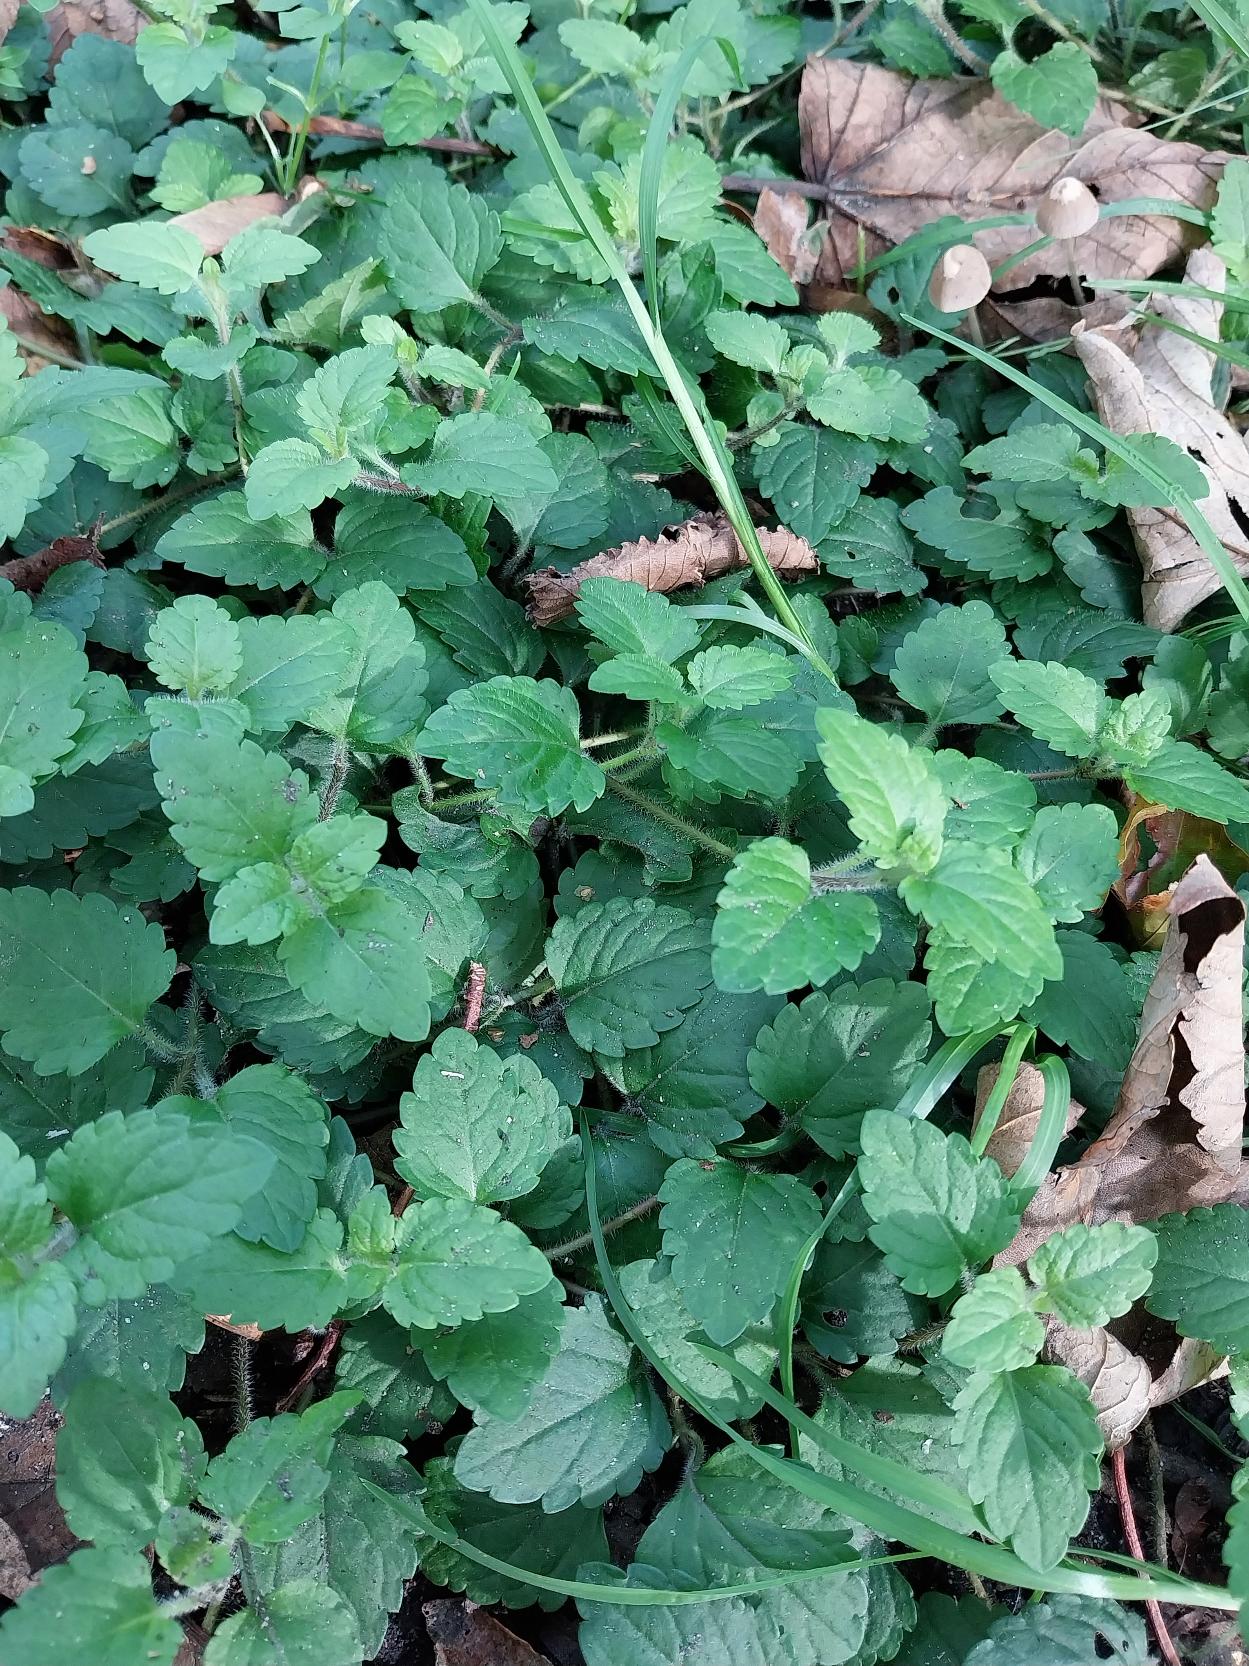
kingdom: Plantae
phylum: Tracheophyta
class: Magnoliopsida
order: Lamiales
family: Plantaginaceae
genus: Veronica
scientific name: Veronica montana
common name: Bjerg-ærenpris
